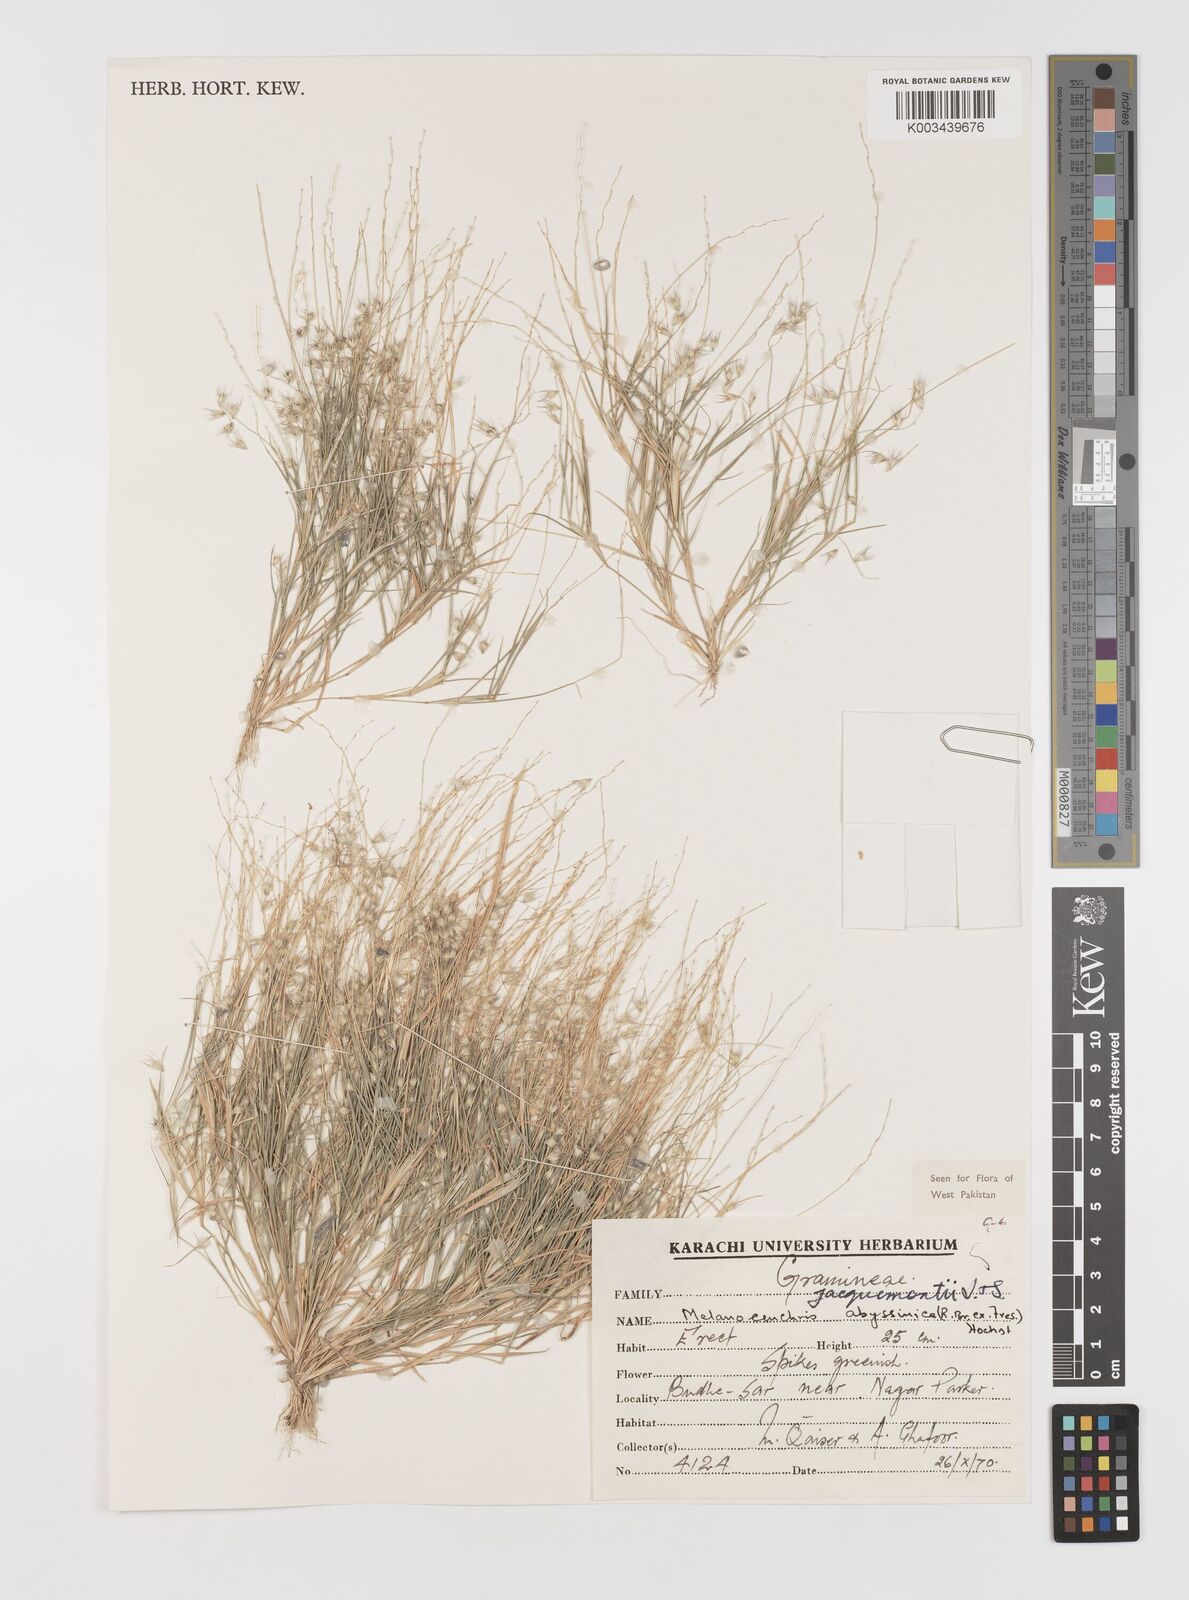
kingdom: Plantae
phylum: Tracheophyta
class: Liliopsida
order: Poales
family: Poaceae
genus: Melanocenchris
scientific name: Melanocenchris jacquemontii
